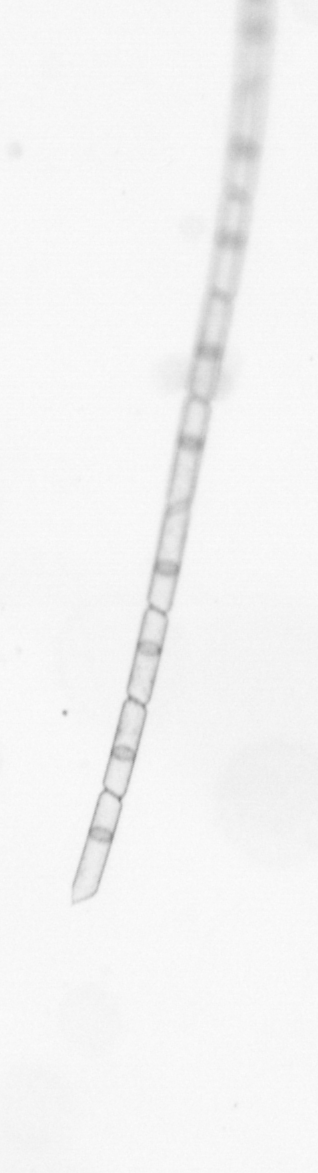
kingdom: Chromista
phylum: Ochrophyta
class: Bacillariophyceae
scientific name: Bacillariophyceae
